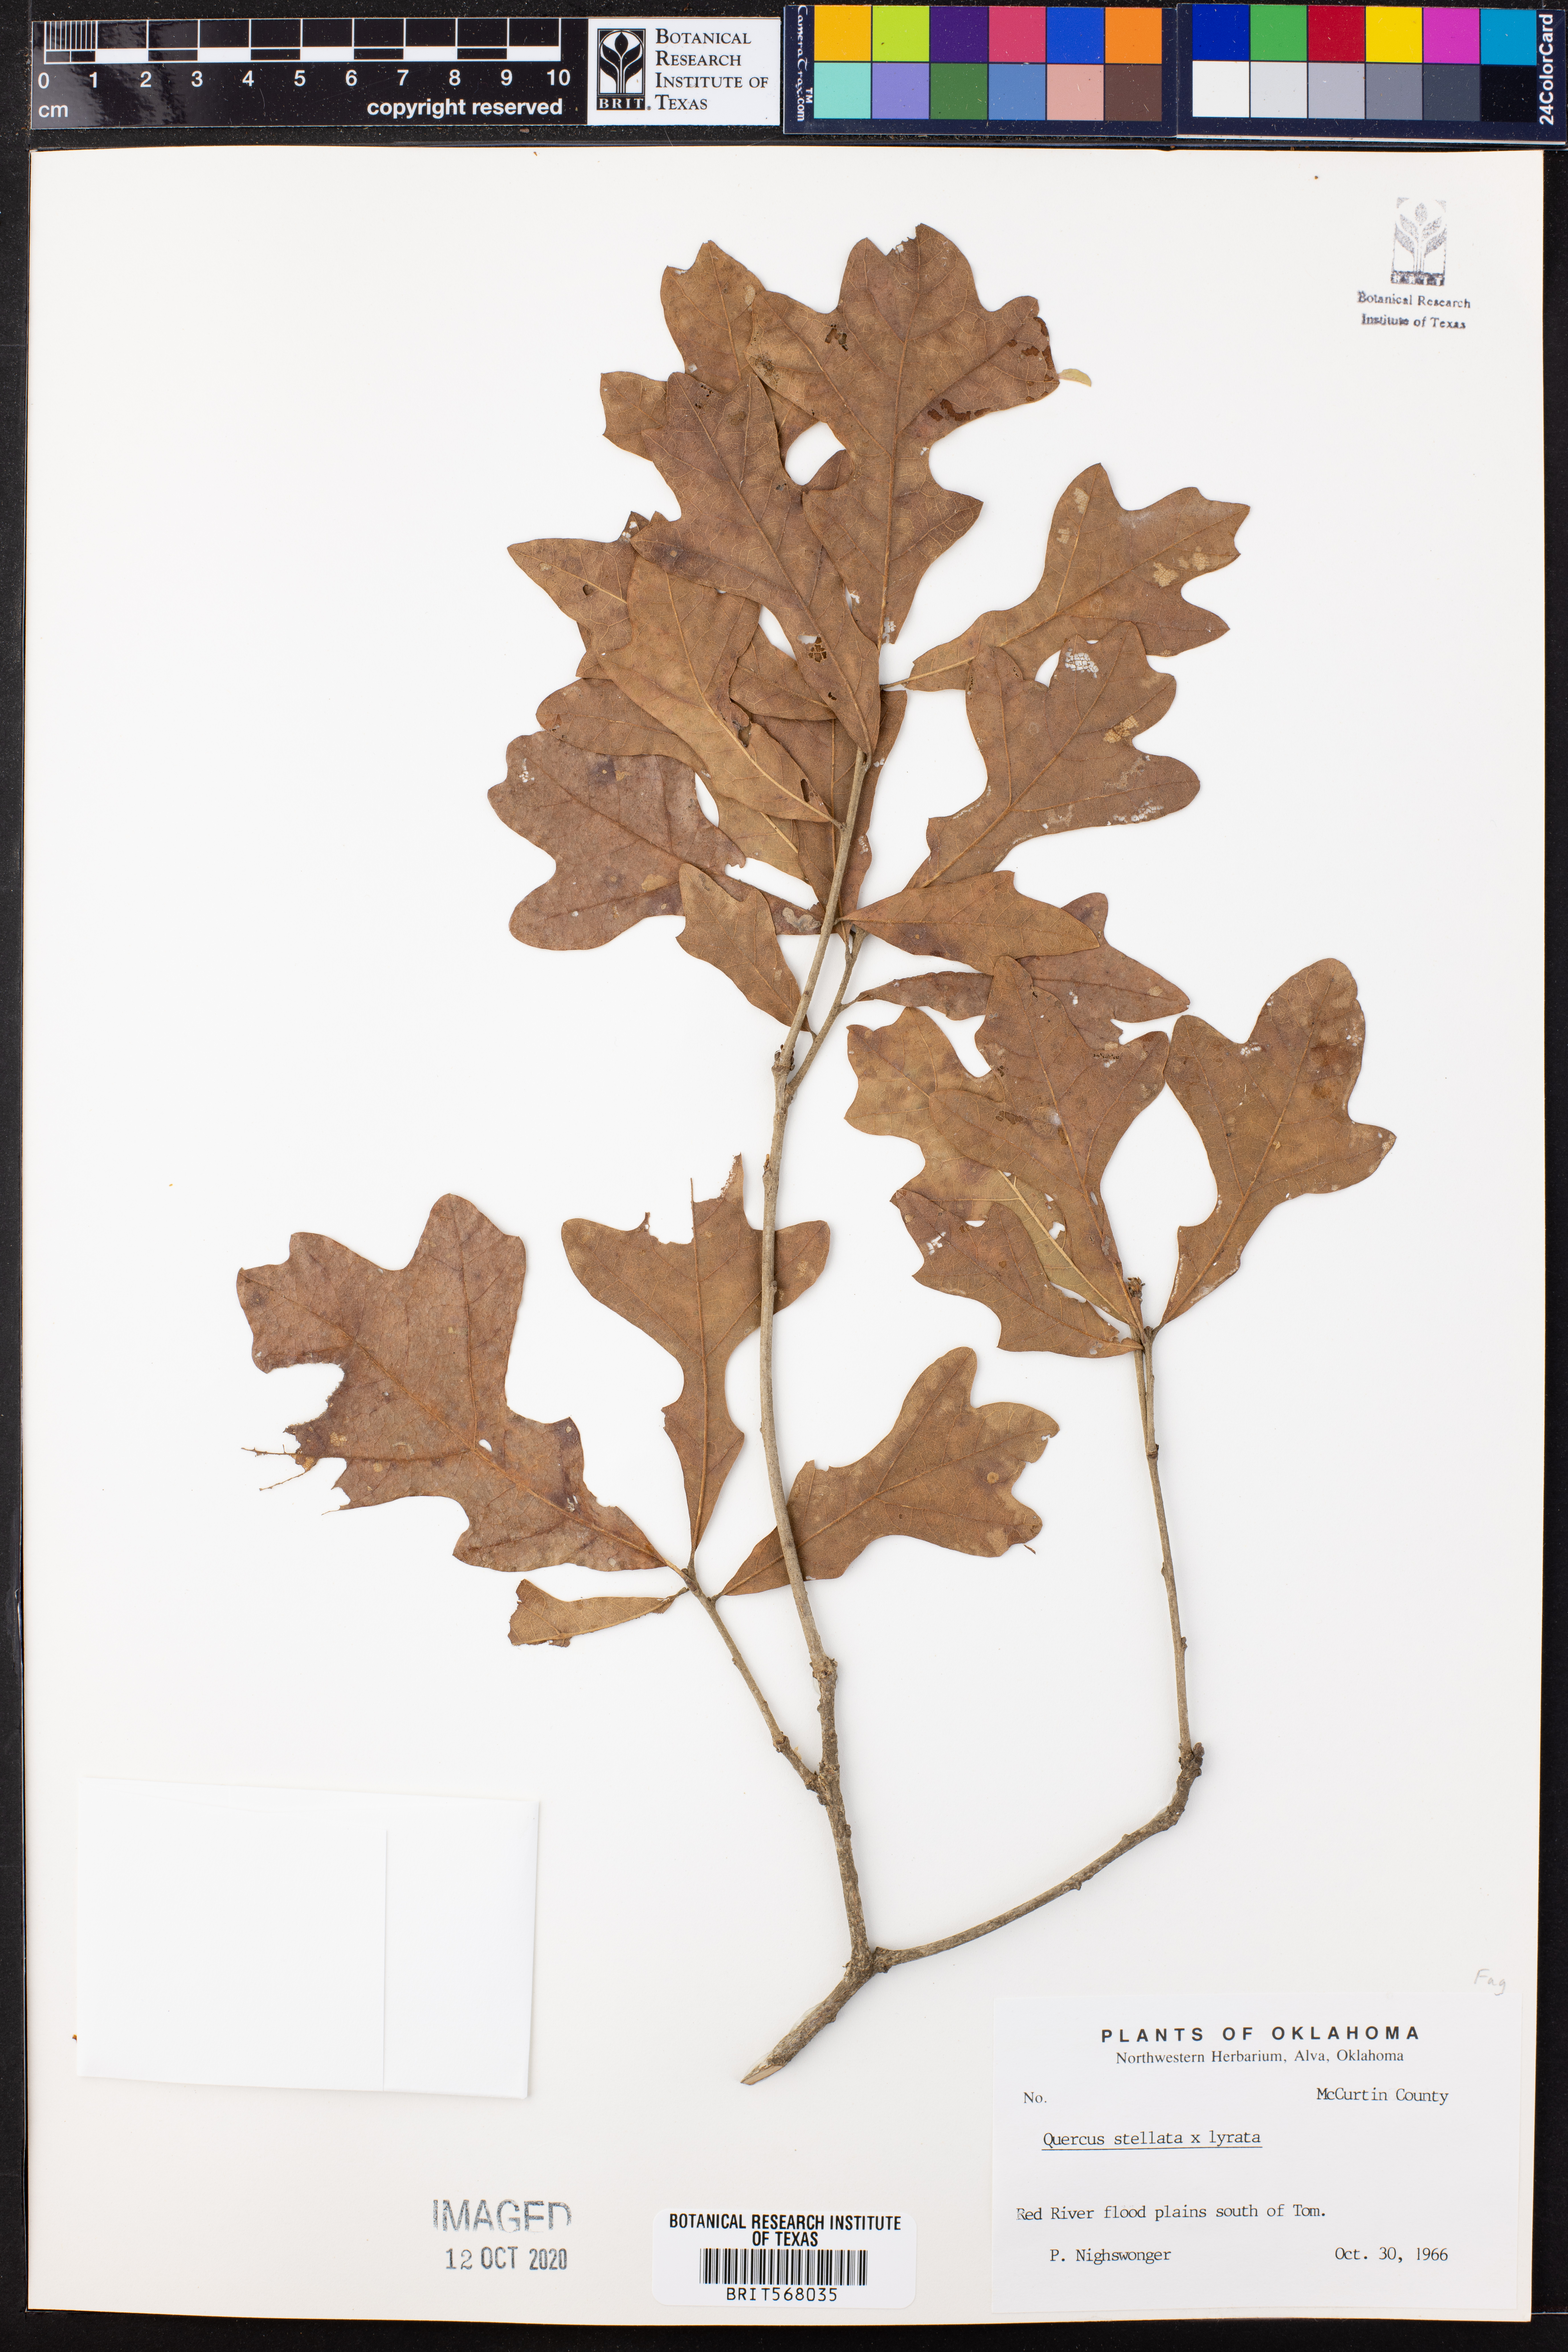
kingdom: Plantae
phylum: Tracheophyta
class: Magnoliopsida
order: Fagales
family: Fagaceae
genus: Quercus
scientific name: Quercus sterrettii
